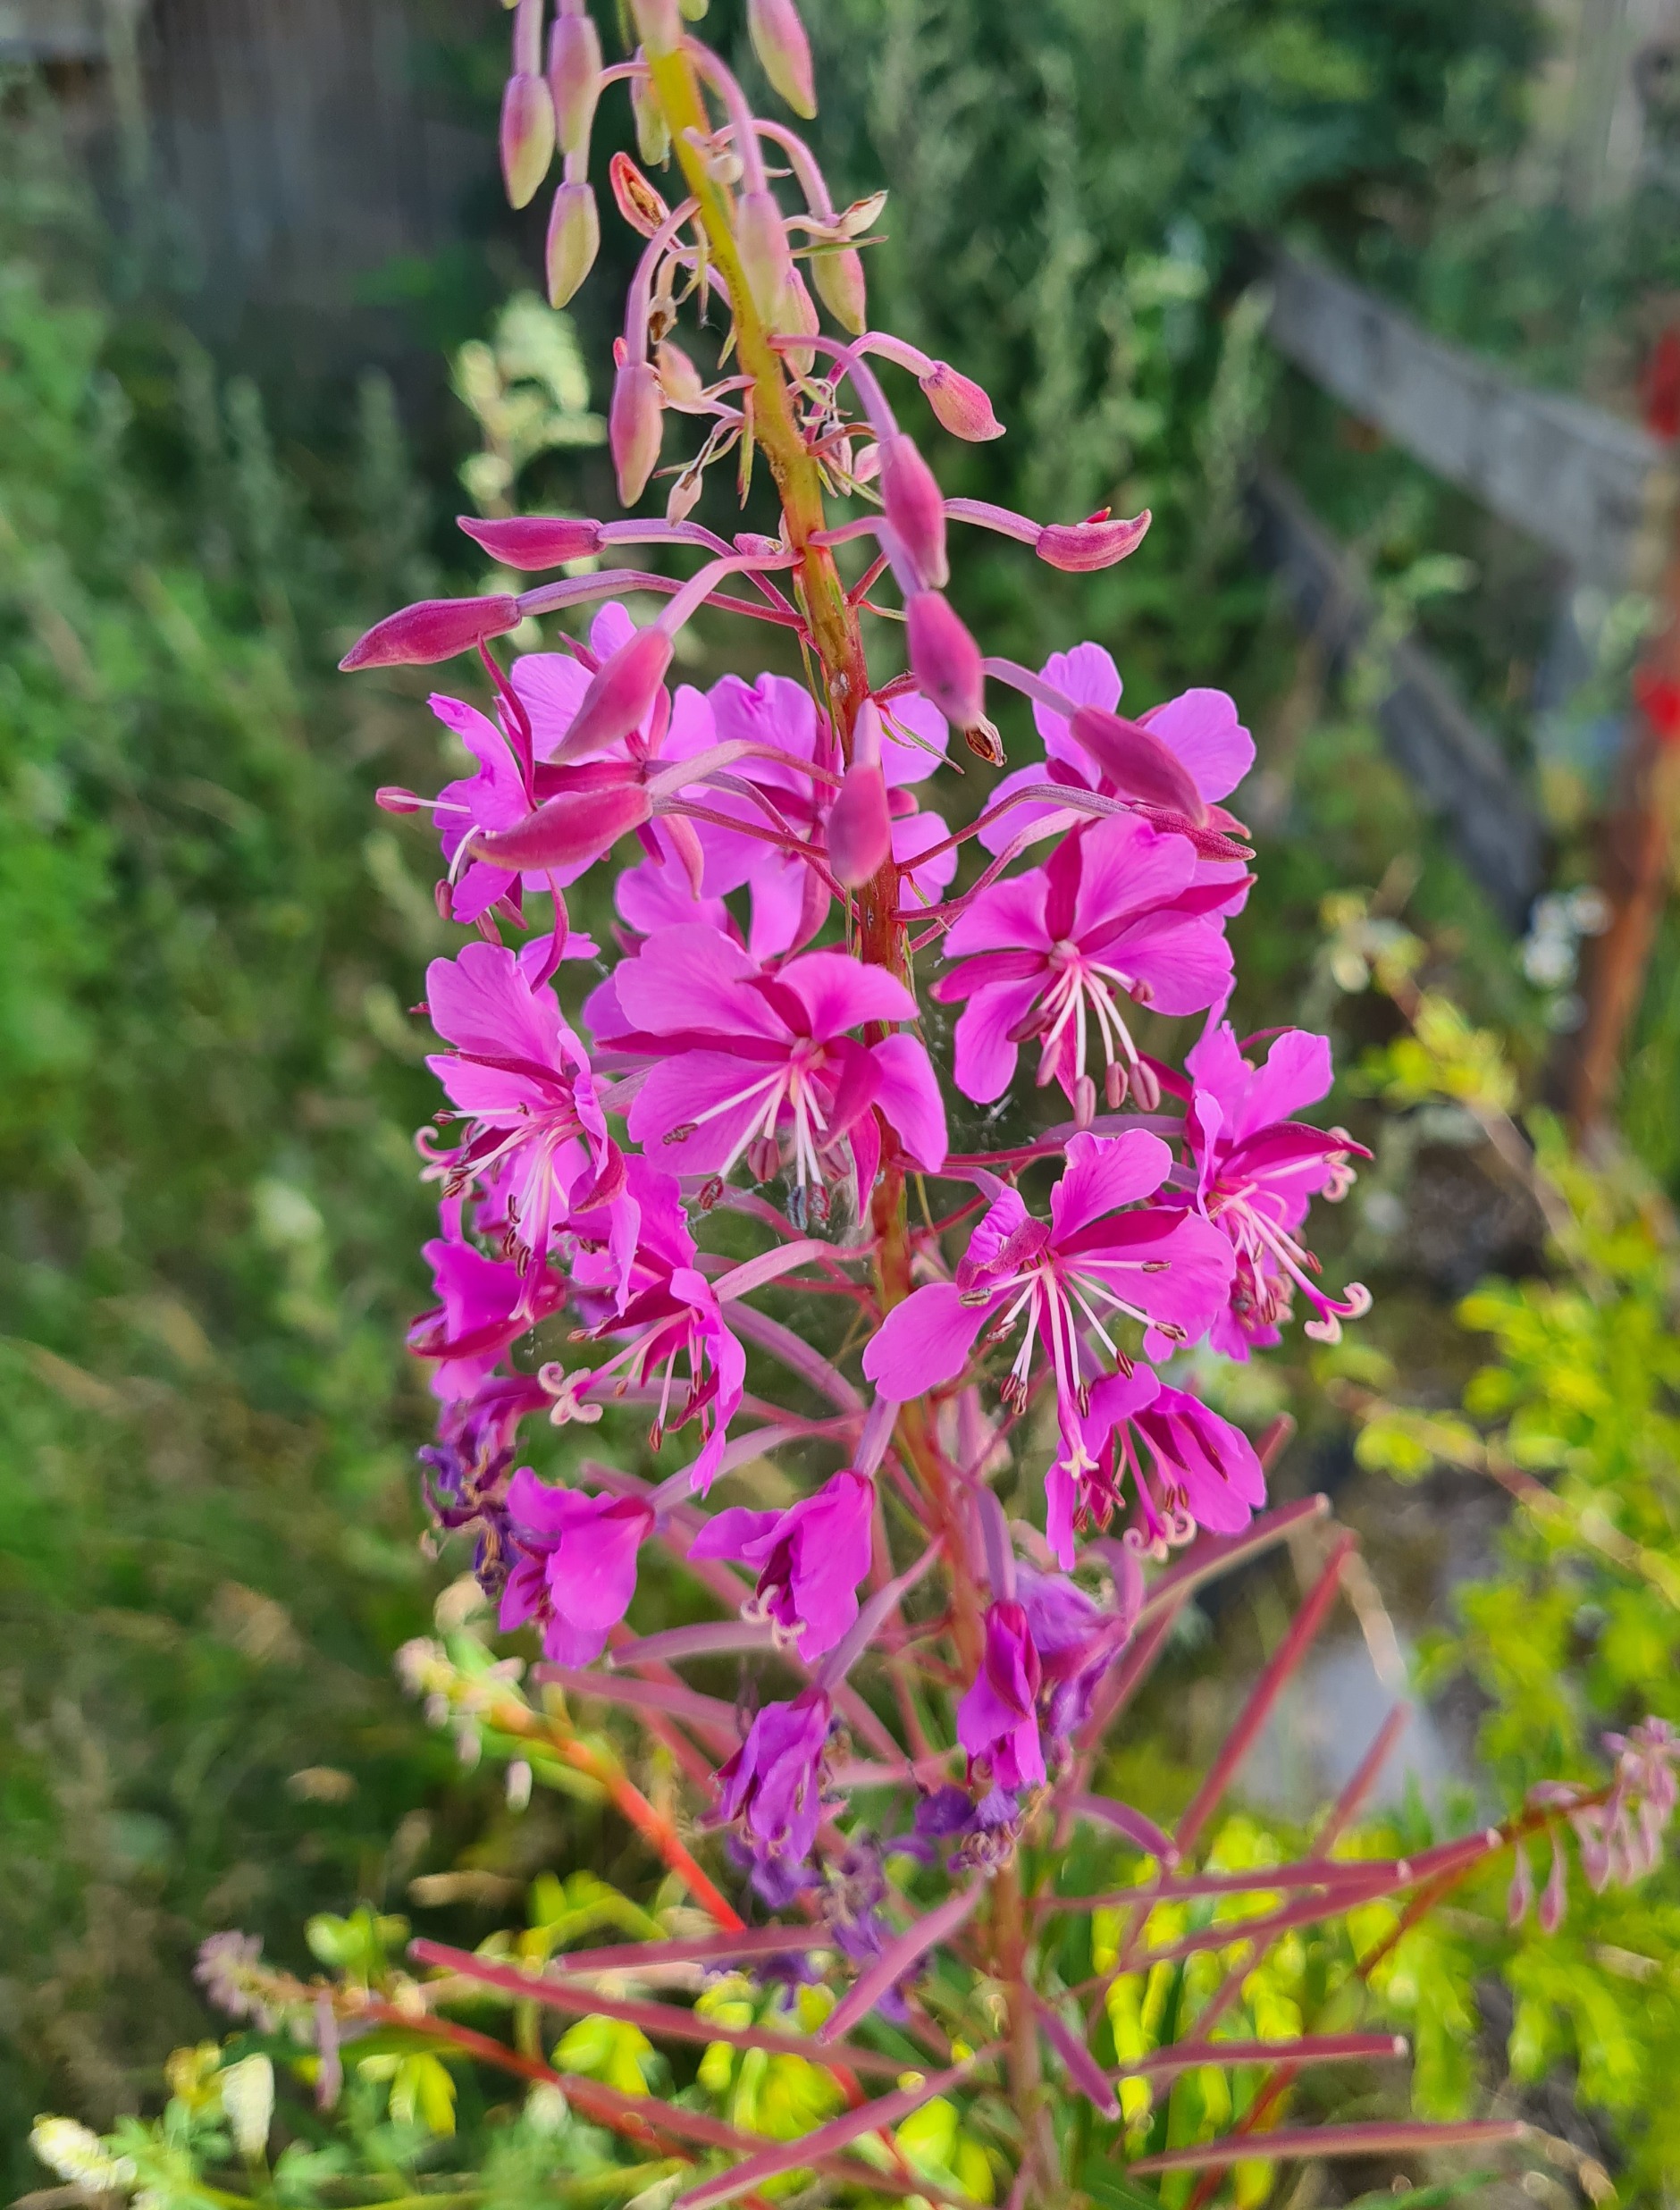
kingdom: Plantae
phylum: Tracheophyta
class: Magnoliopsida
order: Myrtales
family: Onagraceae
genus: Chamaenerion
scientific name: Chamaenerion angustifolium
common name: Gederams
